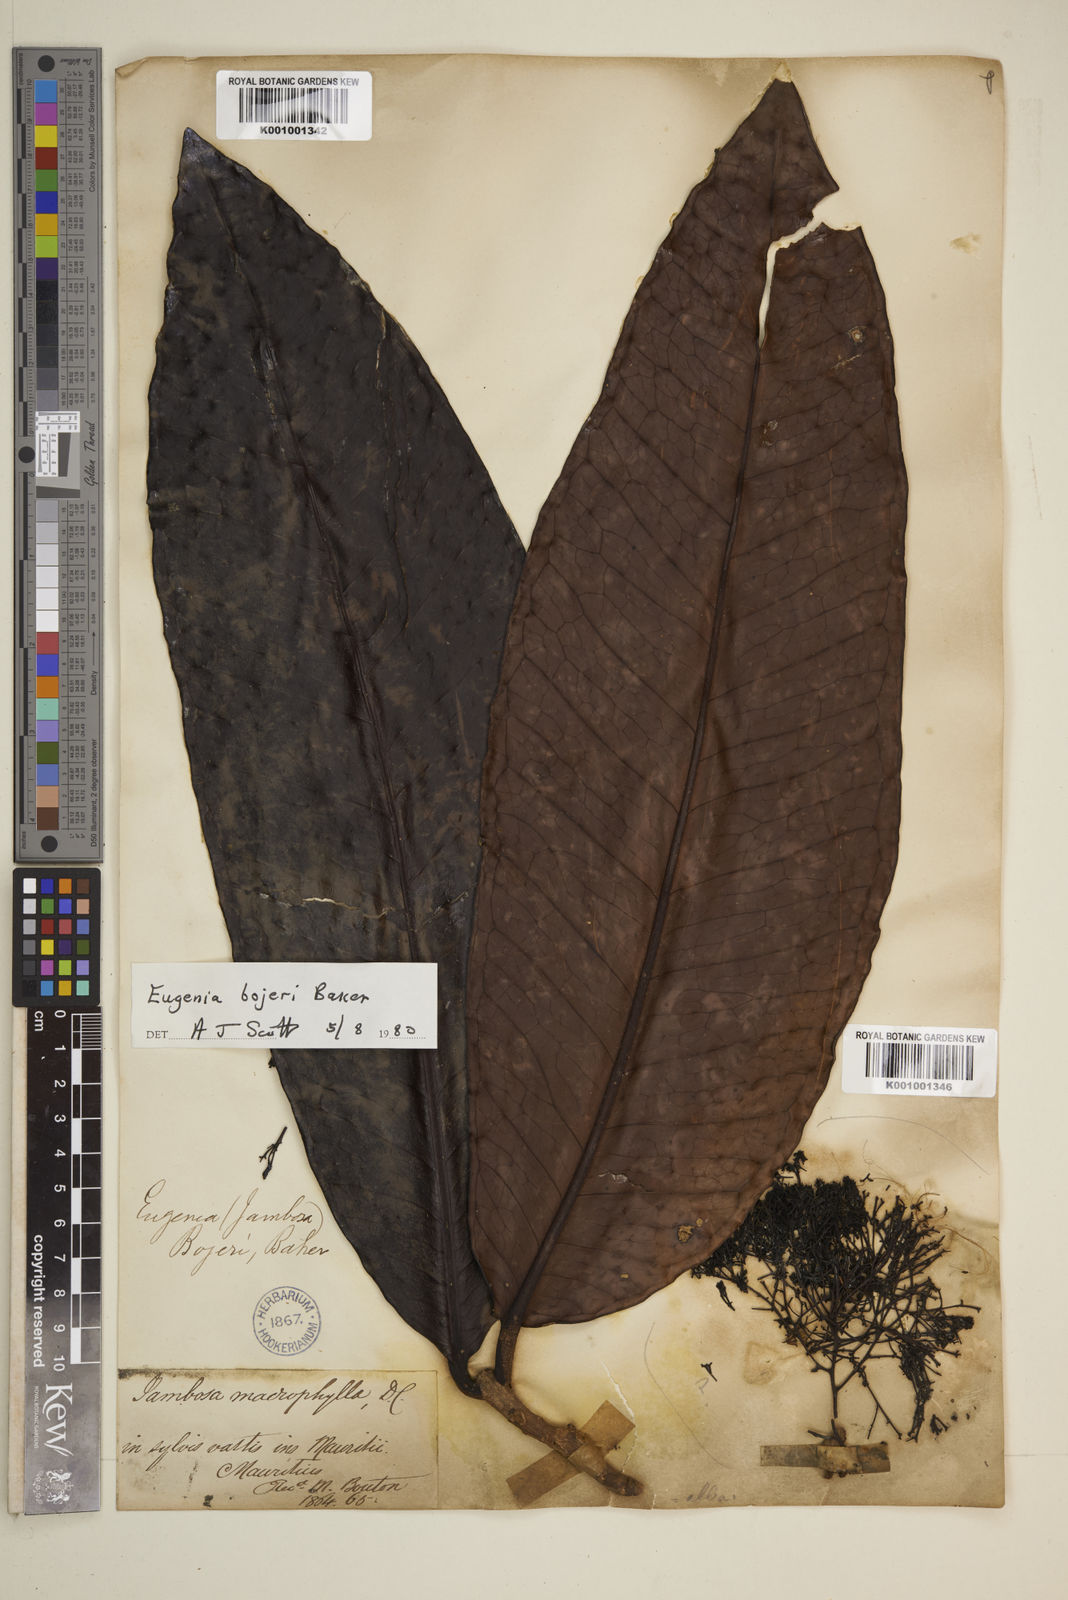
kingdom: Plantae
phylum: Tracheophyta
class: Magnoliopsida
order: Myrtales
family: Myrtaceae
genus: Eugenia
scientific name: Eugenia elliptica
